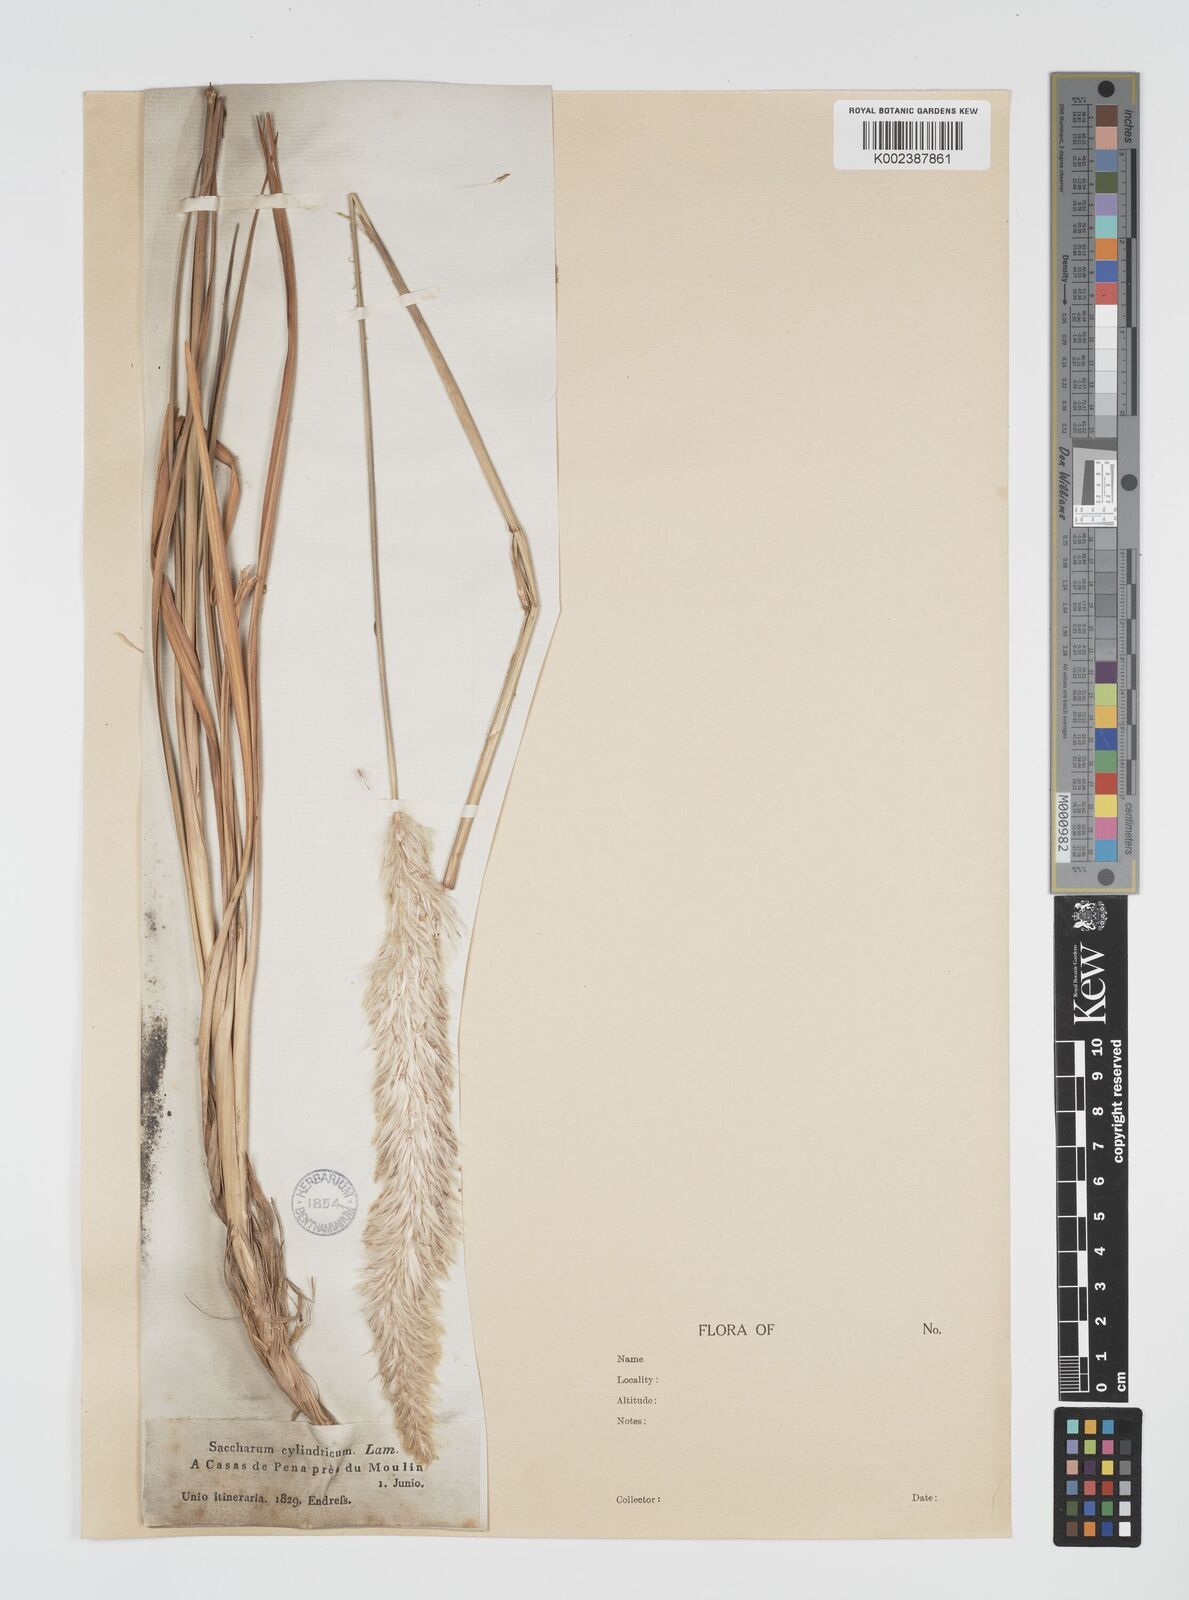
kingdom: Plantae
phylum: Tracheophyta
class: Liliopsida
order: Poales
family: Poaceae
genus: Imperata
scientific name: Imperata cylindrica
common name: Cogongrass
